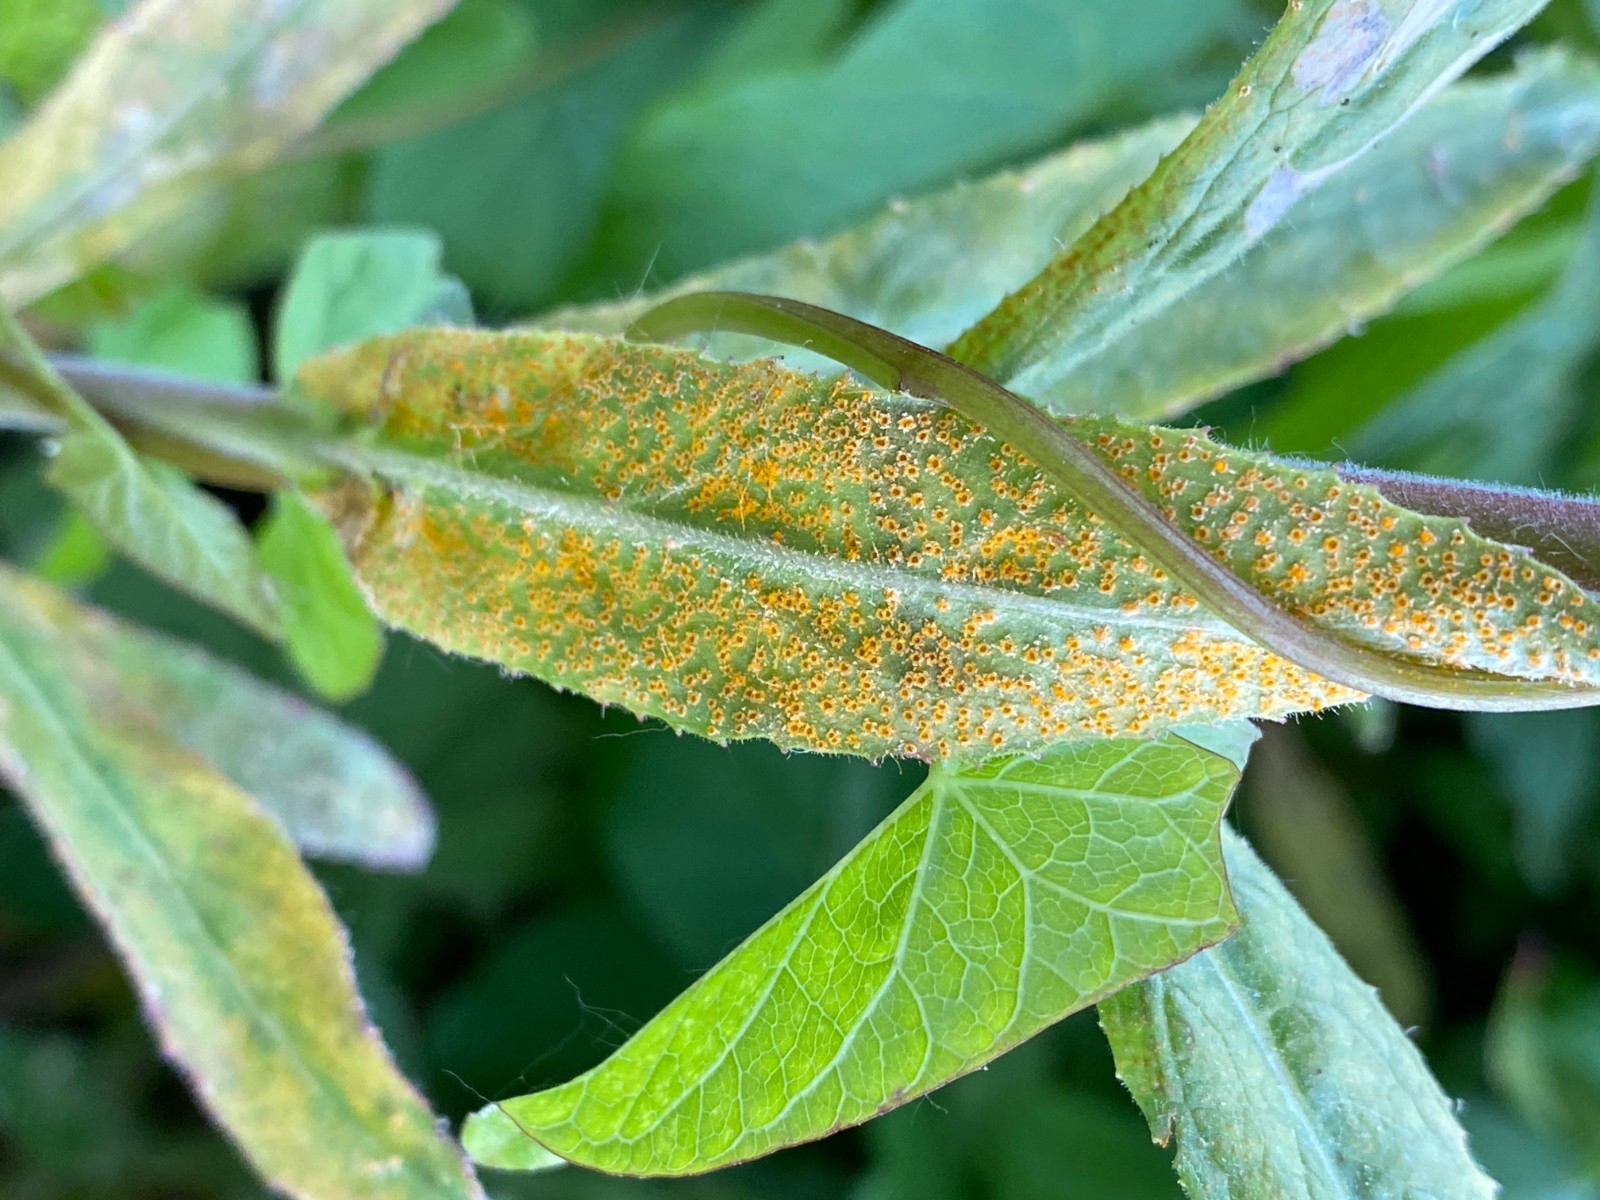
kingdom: Fungi
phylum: Basidiomycota
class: Pucciniomycetes
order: Pucciniales
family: Pucciniaceae
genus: Puccinia
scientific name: Puccinia pulverulenta
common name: dueurt-tvecellerust
